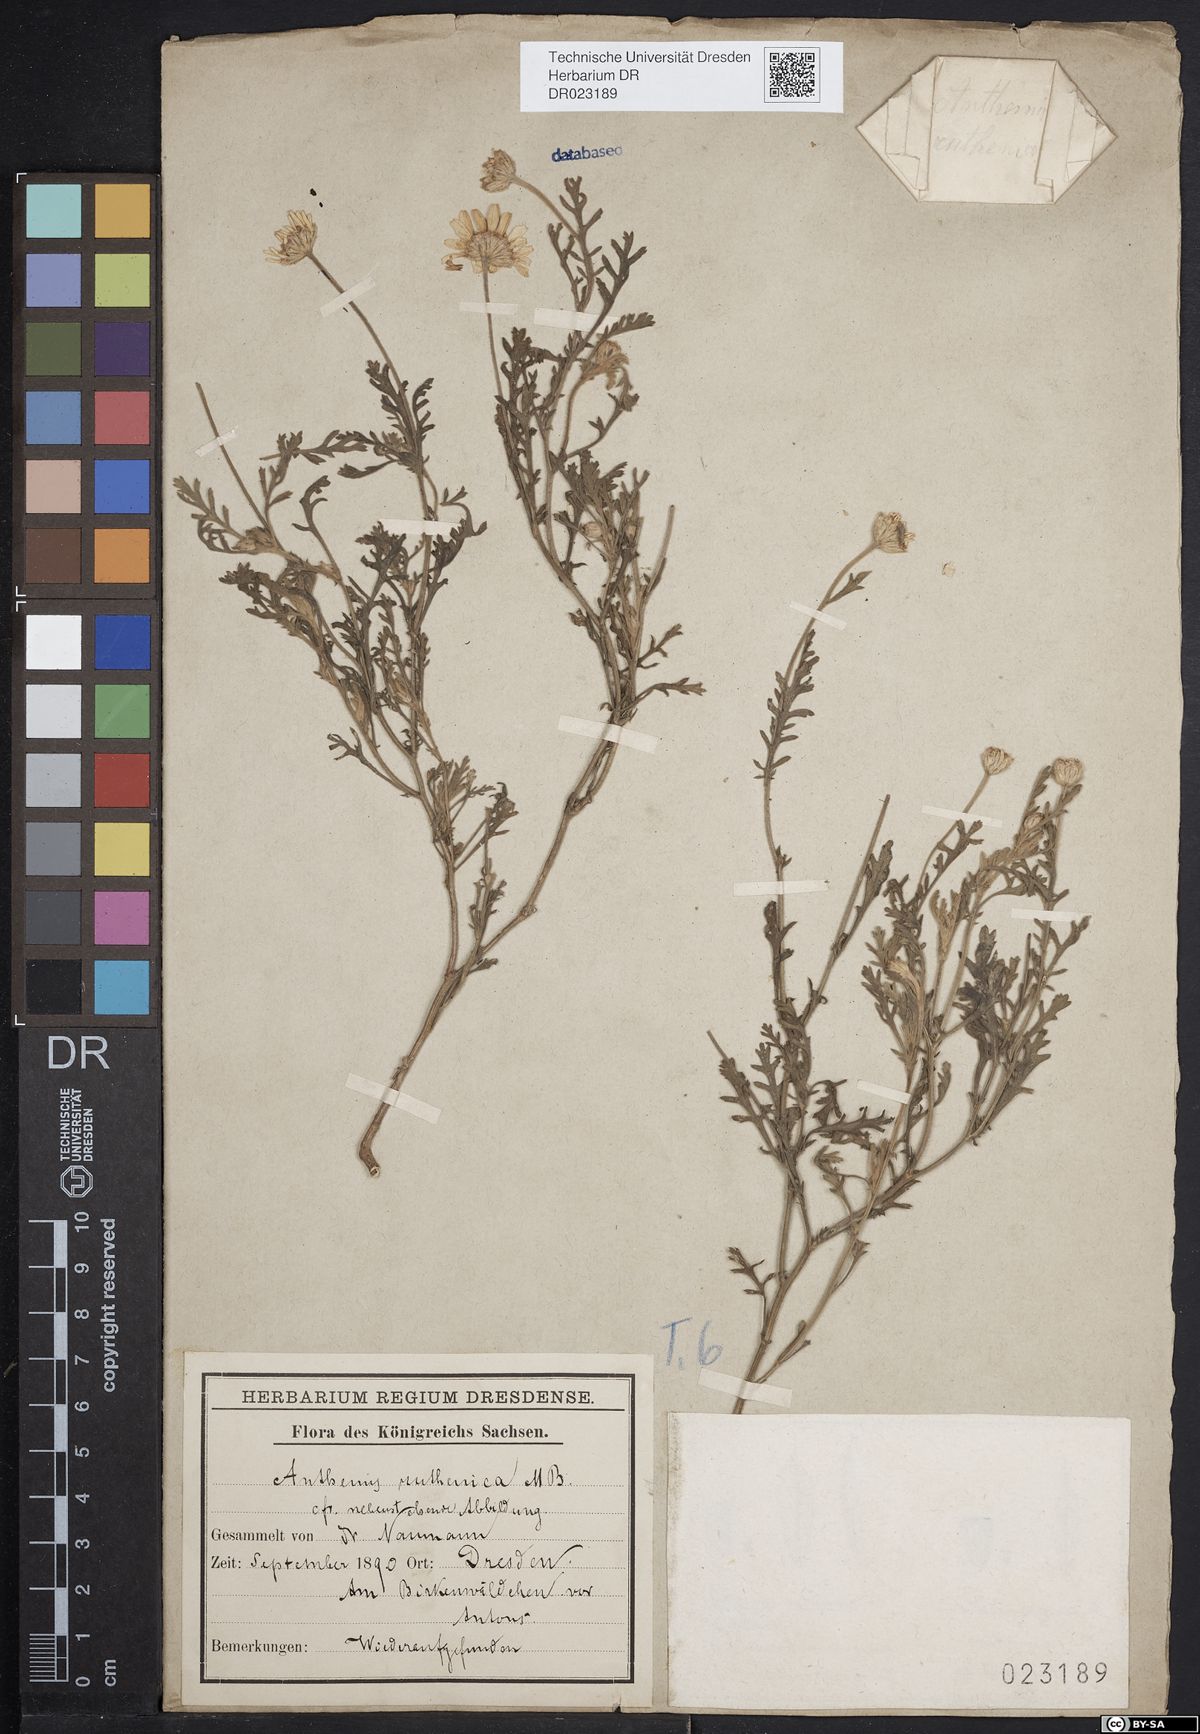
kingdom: Plantae
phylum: Tracheophyta
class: Magnoliopsida
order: Asterales
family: Asteraceae
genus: Anthemis
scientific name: Anthemis ruthenica
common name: Eastern chamomile
